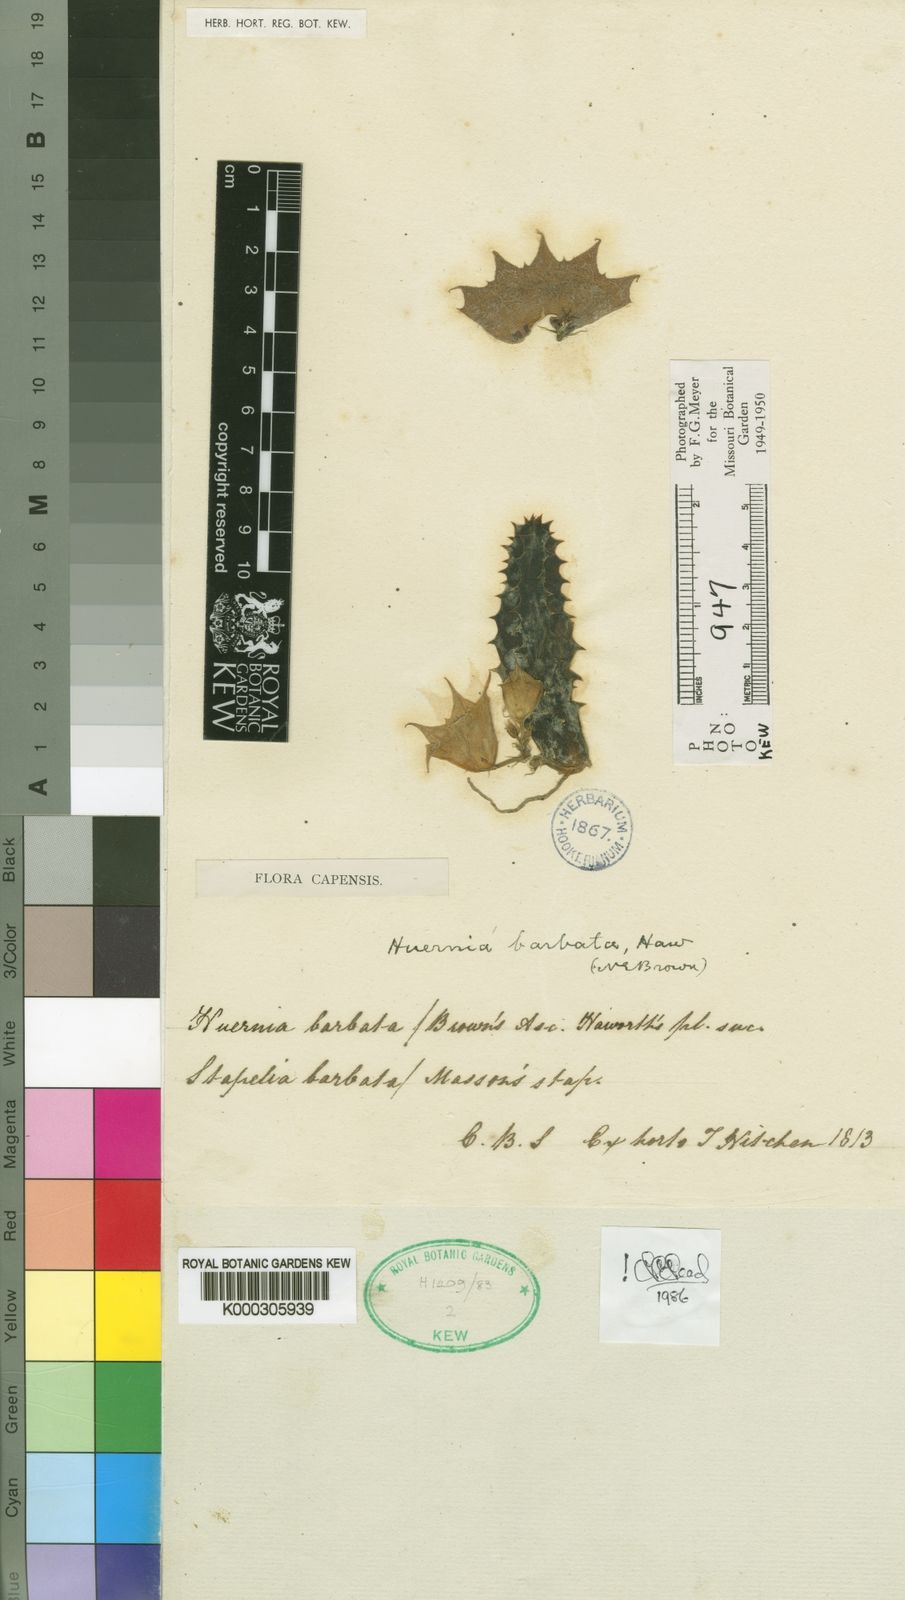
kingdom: Plantae
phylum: Tracheophyta
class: Magnoliopsida
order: Gentianales
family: Apocynaceae
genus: Ceropegia
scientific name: Ceropegia clavigera
